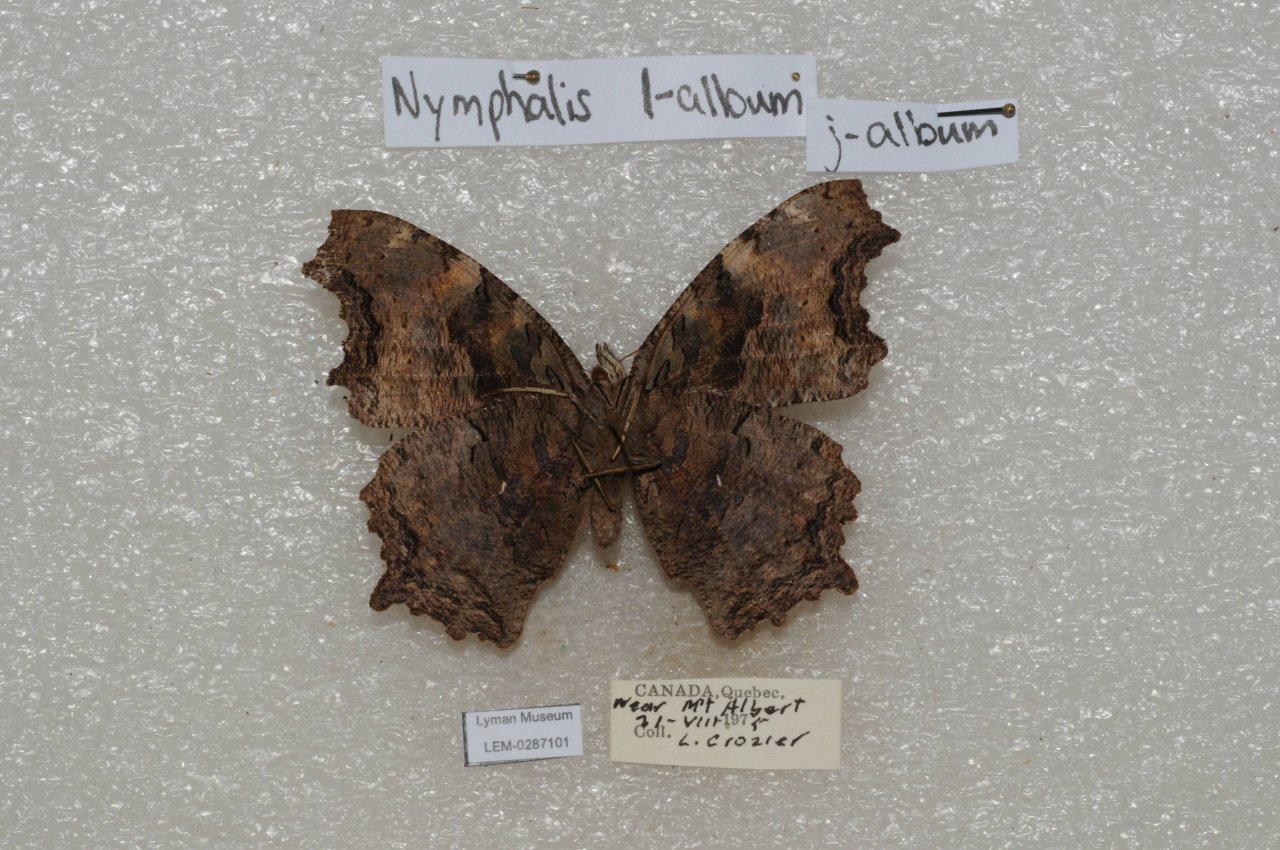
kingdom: Animalia
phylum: Arthropoda
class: Insecta
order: Lepidoptera
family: Nymphalidae
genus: Polygonia
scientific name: Polygonia vaualbum
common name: Compton Tortoiseshell
